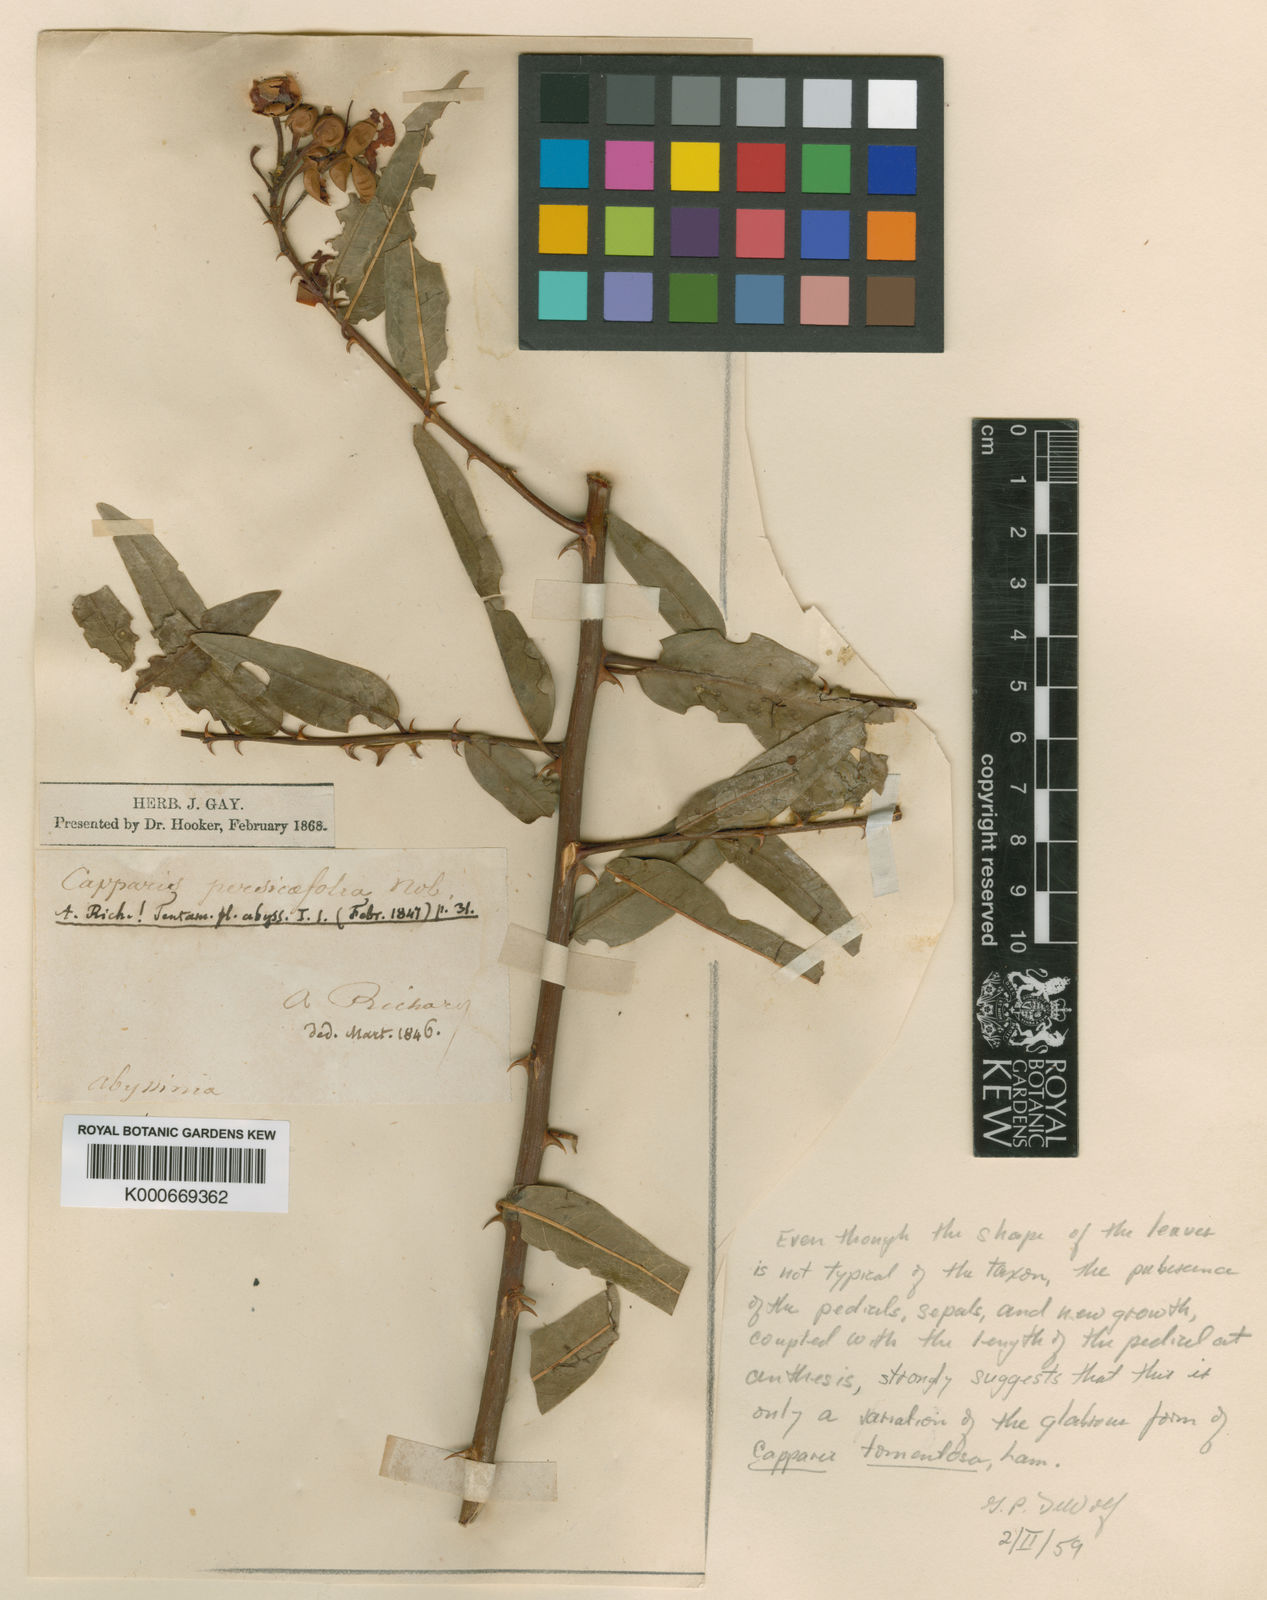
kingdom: Plantae
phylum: Tracheophyta
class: Magnoliopsida
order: Brassicales
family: Capparaceae
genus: Capparis
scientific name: Capparis tomentosa
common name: African caper
